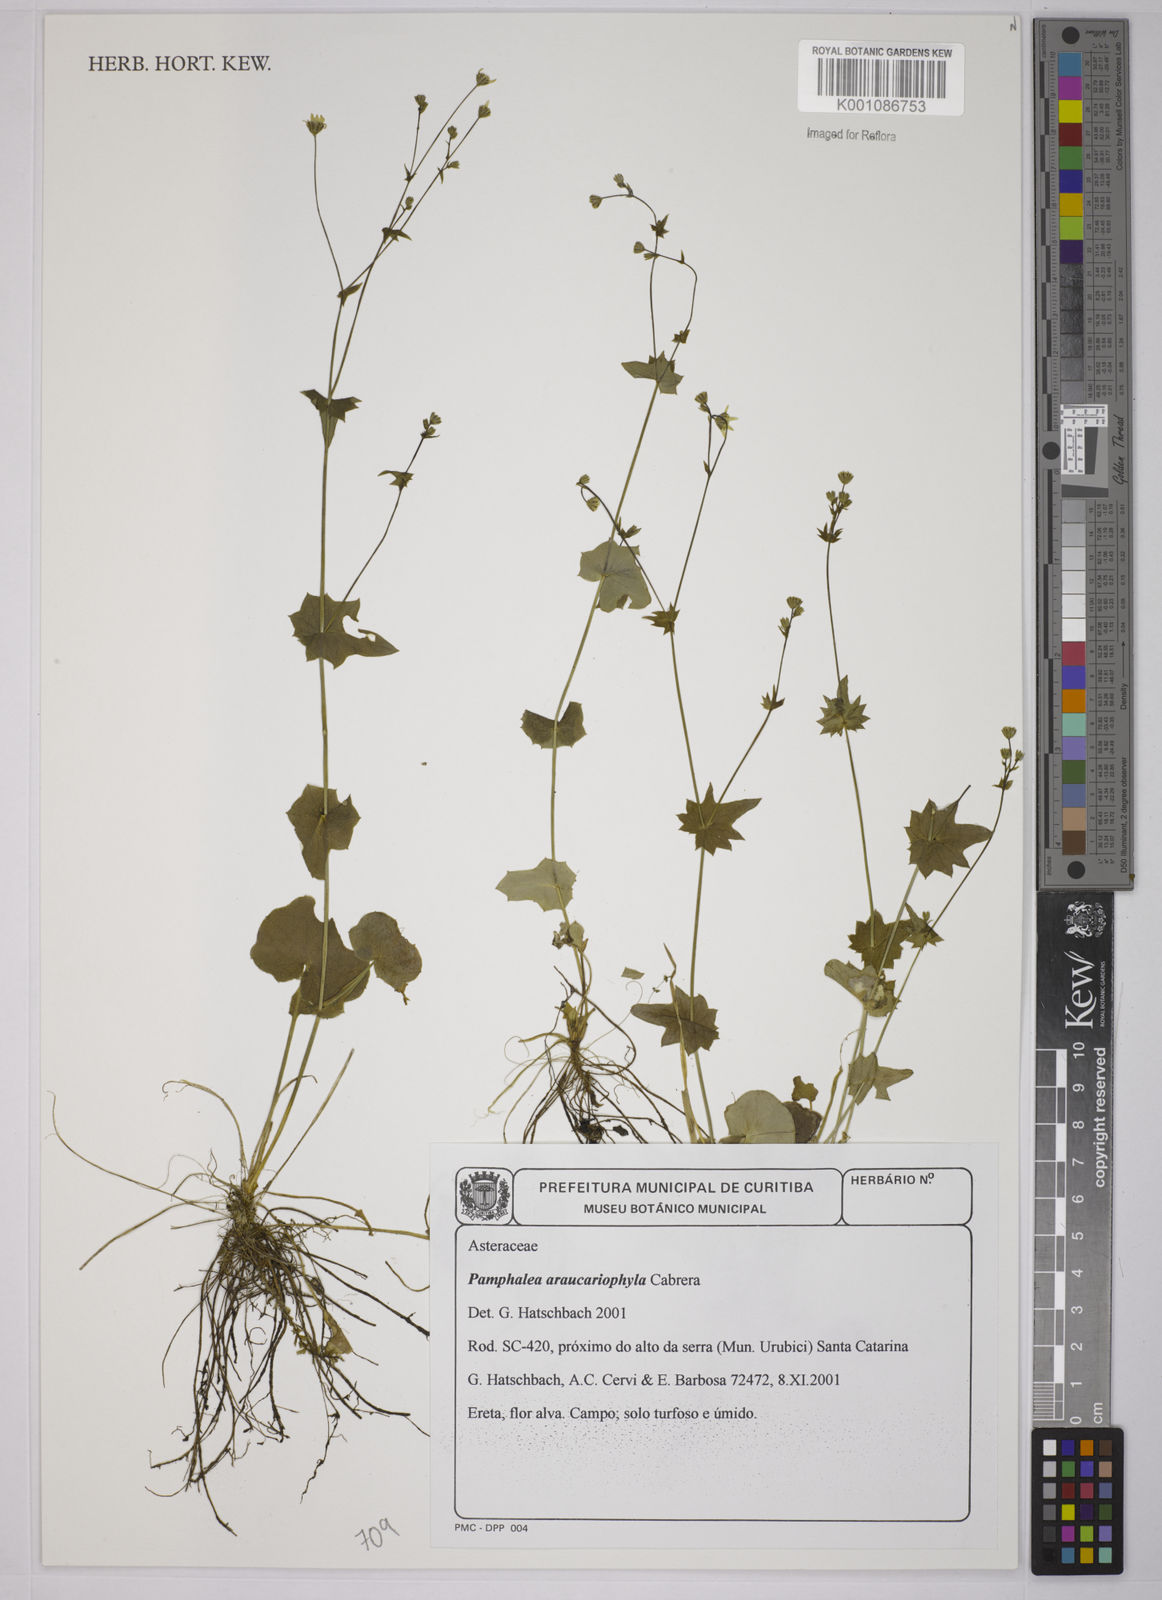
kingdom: Plantae
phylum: Tracheophyta
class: Magnoliopsida
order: Asterales
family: Asteraceae
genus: Panphalea
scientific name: Panphalea araucariophila
